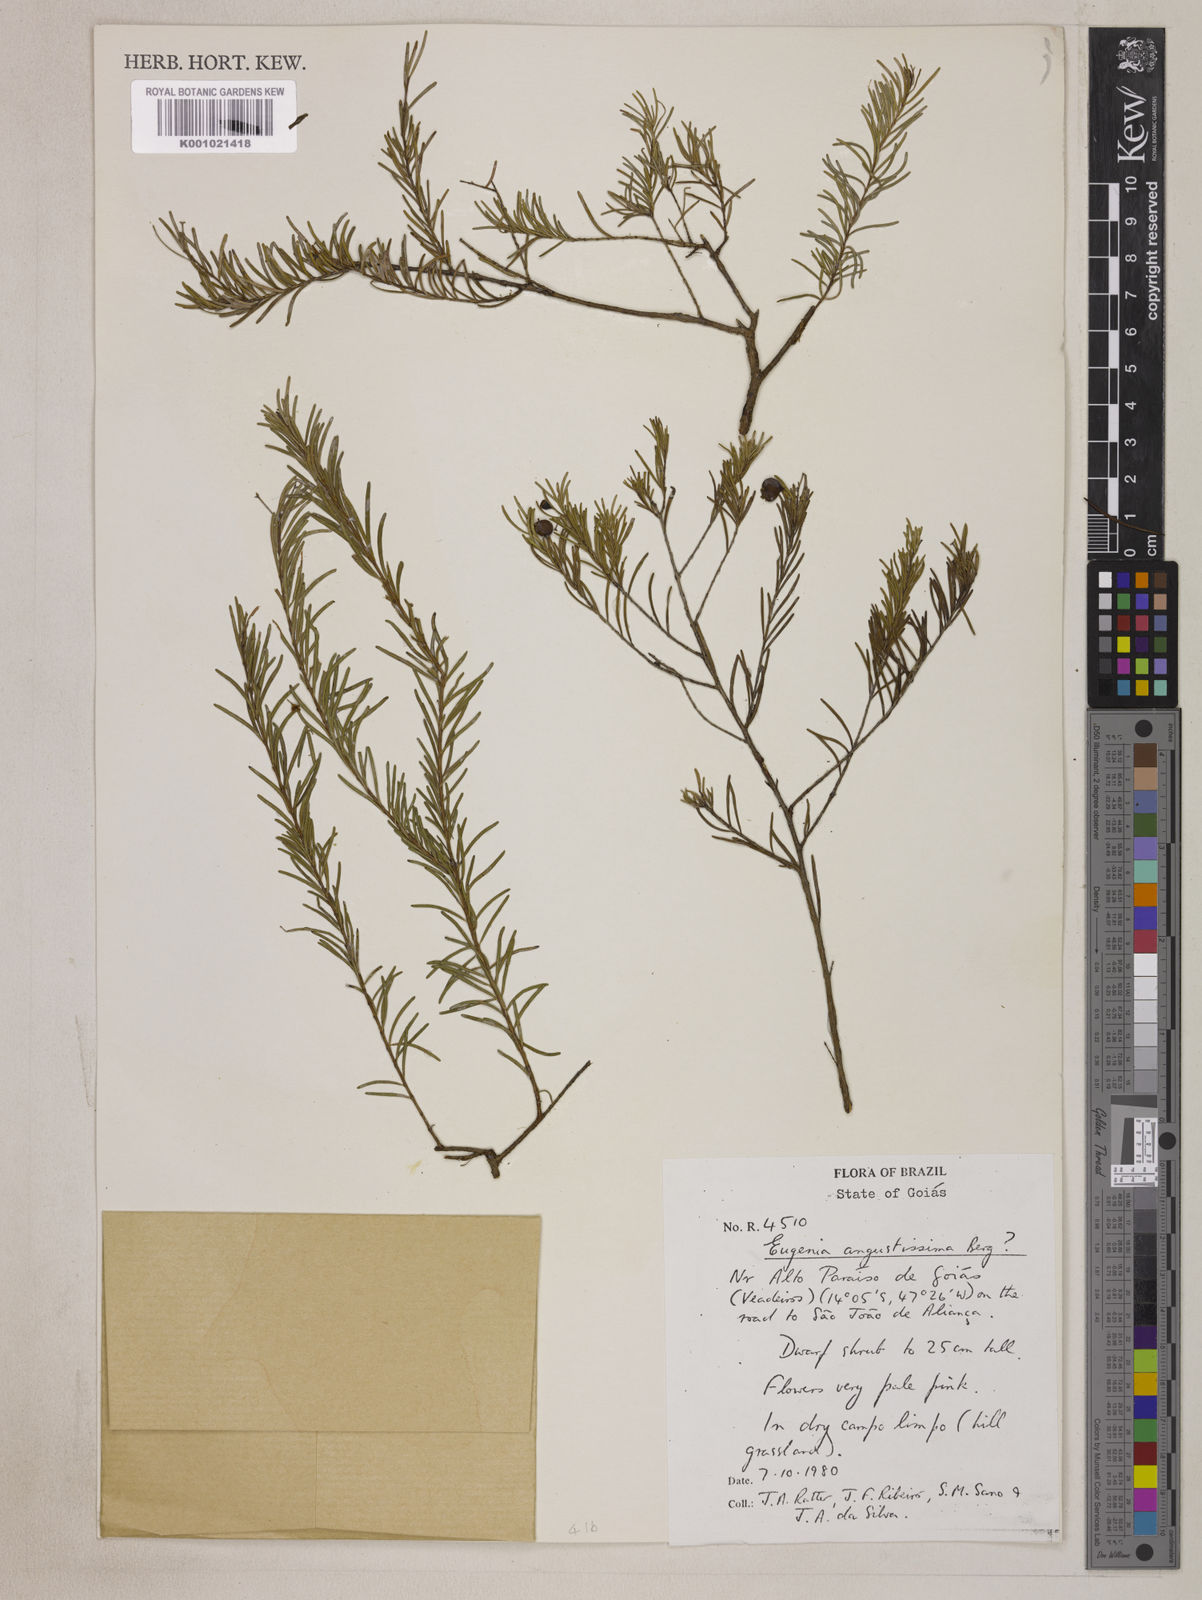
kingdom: Plantae
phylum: Tracheophyta
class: Magnoliopsida
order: Myrtales
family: Myrtaceae
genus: Eugenia
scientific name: Eugenia angustissima
